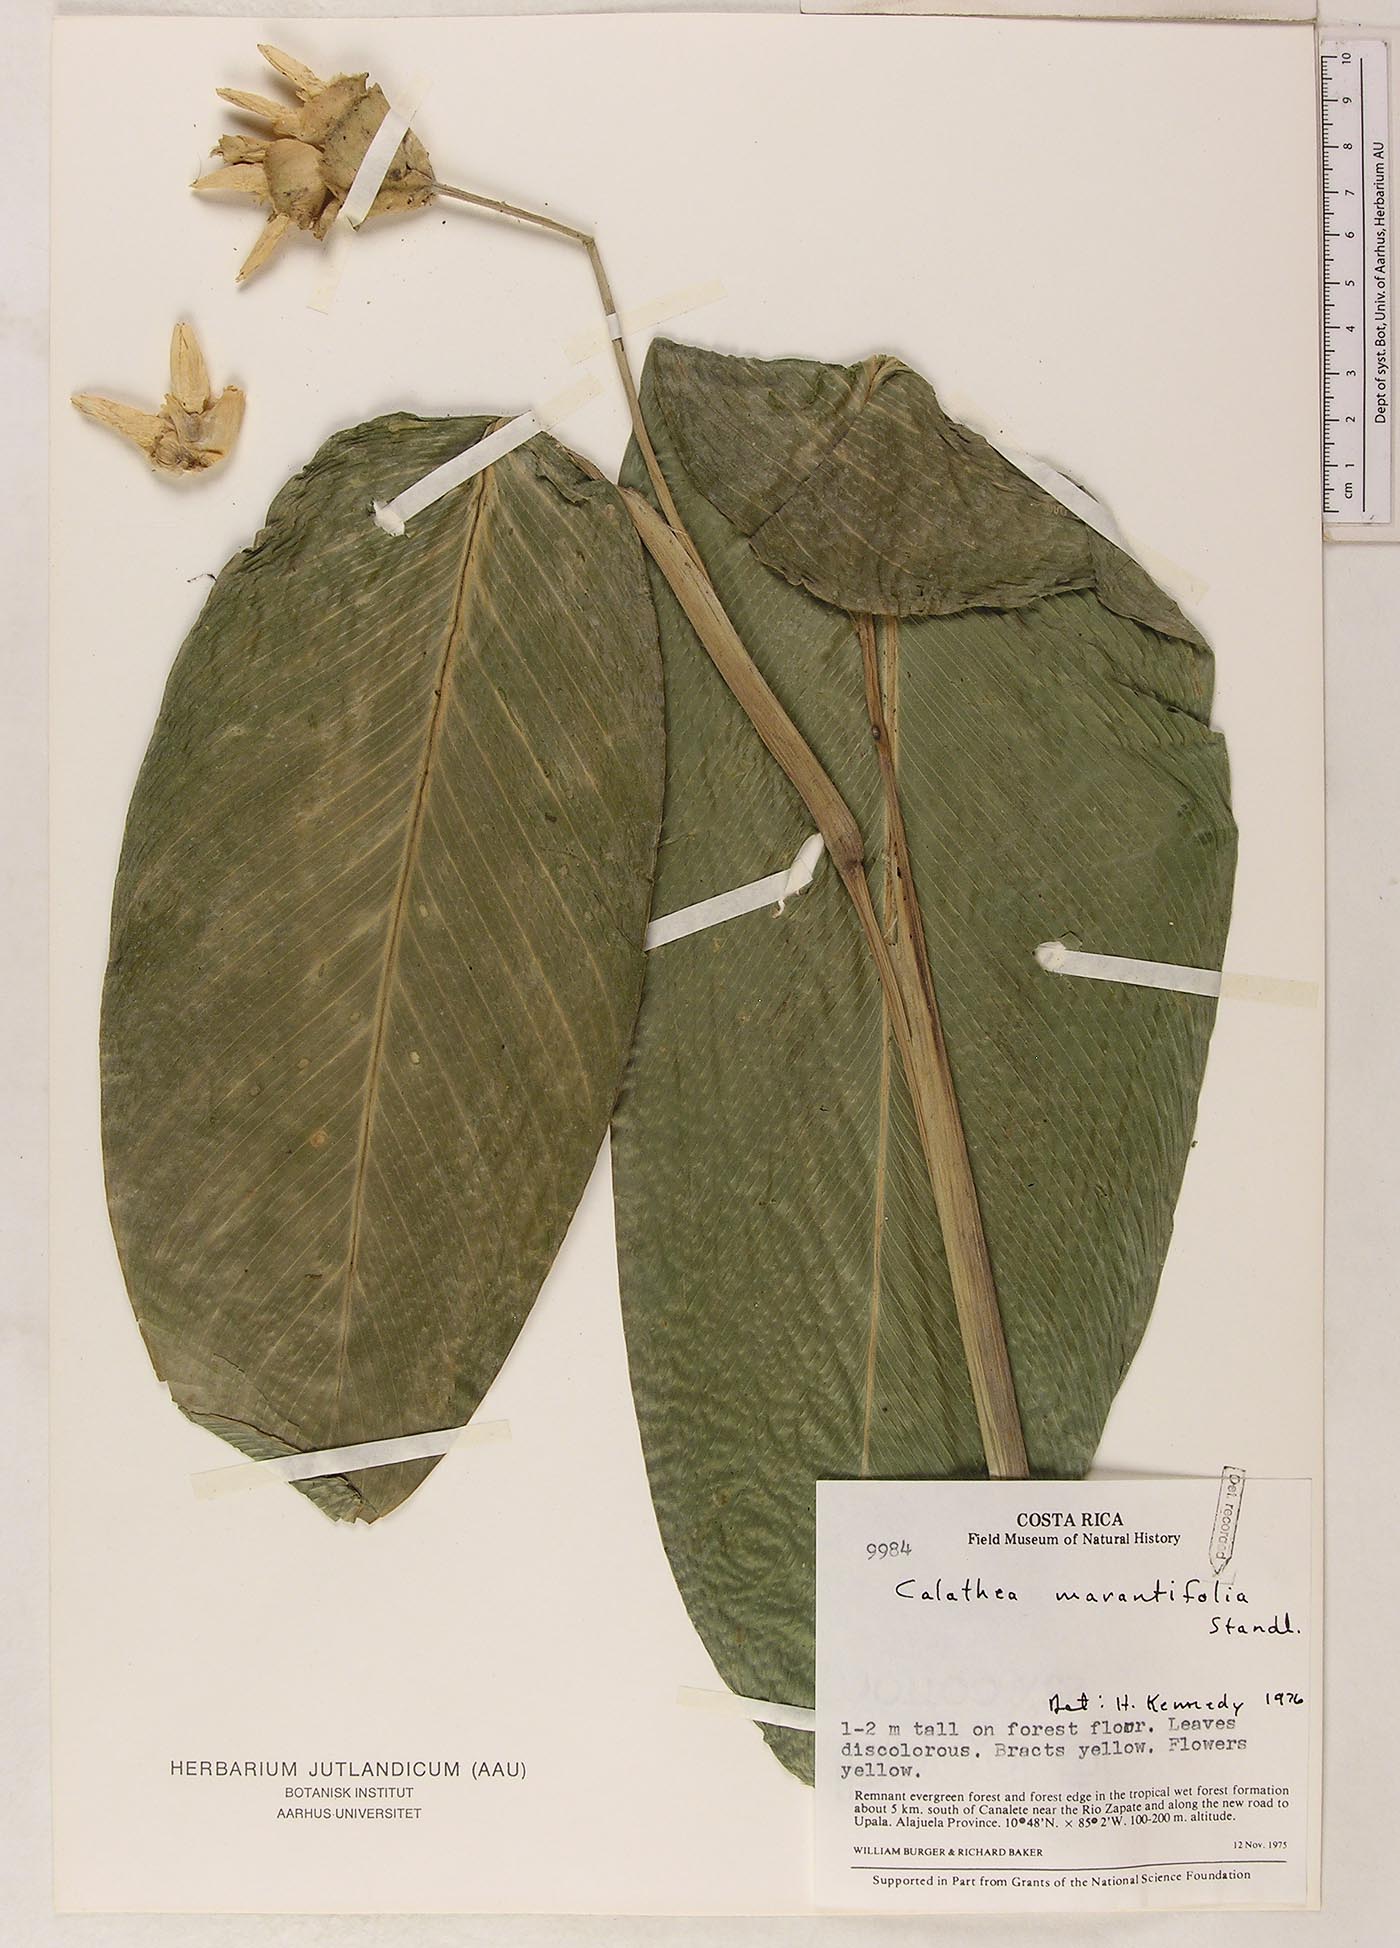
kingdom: Plantae
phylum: Tracheophyta
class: Liliopsida
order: Zingiberales
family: Marantaceae
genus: Goeppertia
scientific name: Goeppertia marantifolia
